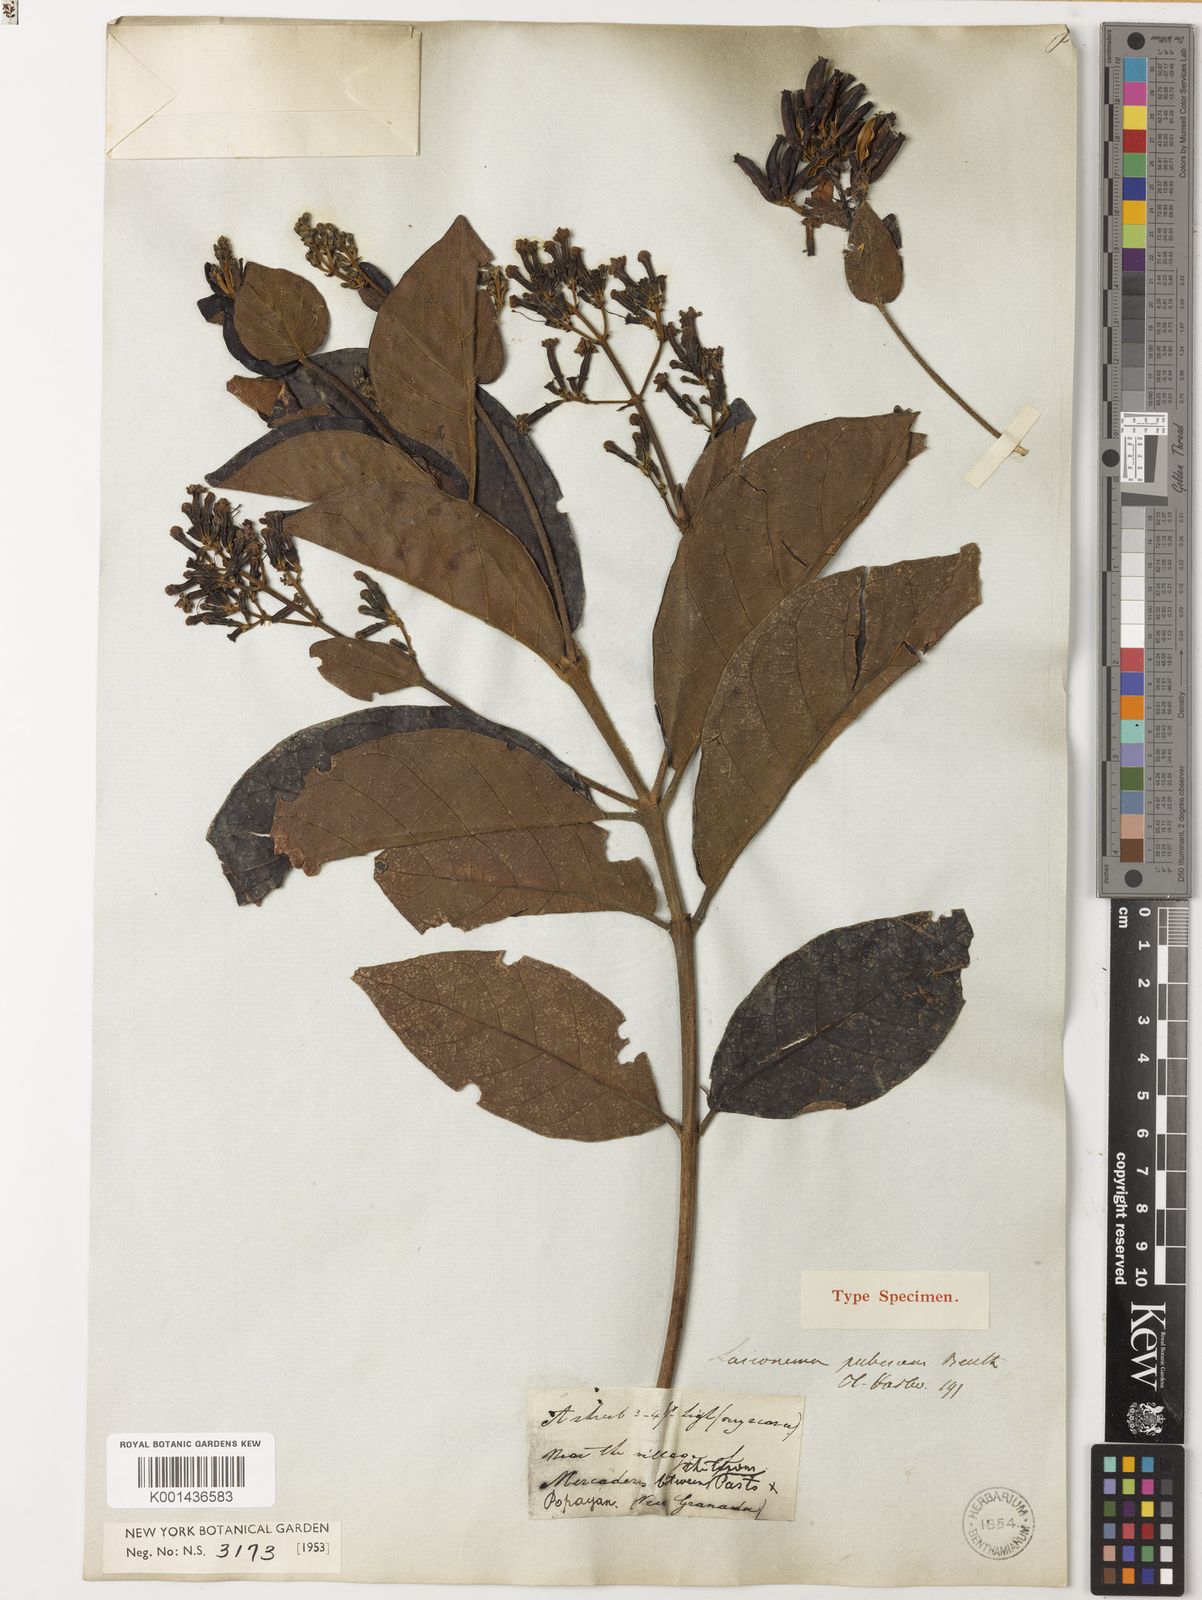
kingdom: Plantae
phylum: Tracheophyta
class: Magnoliopsida
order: Gentianales
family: Rubiaceae
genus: Macrocnemum
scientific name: Macrocnemum pubescens
